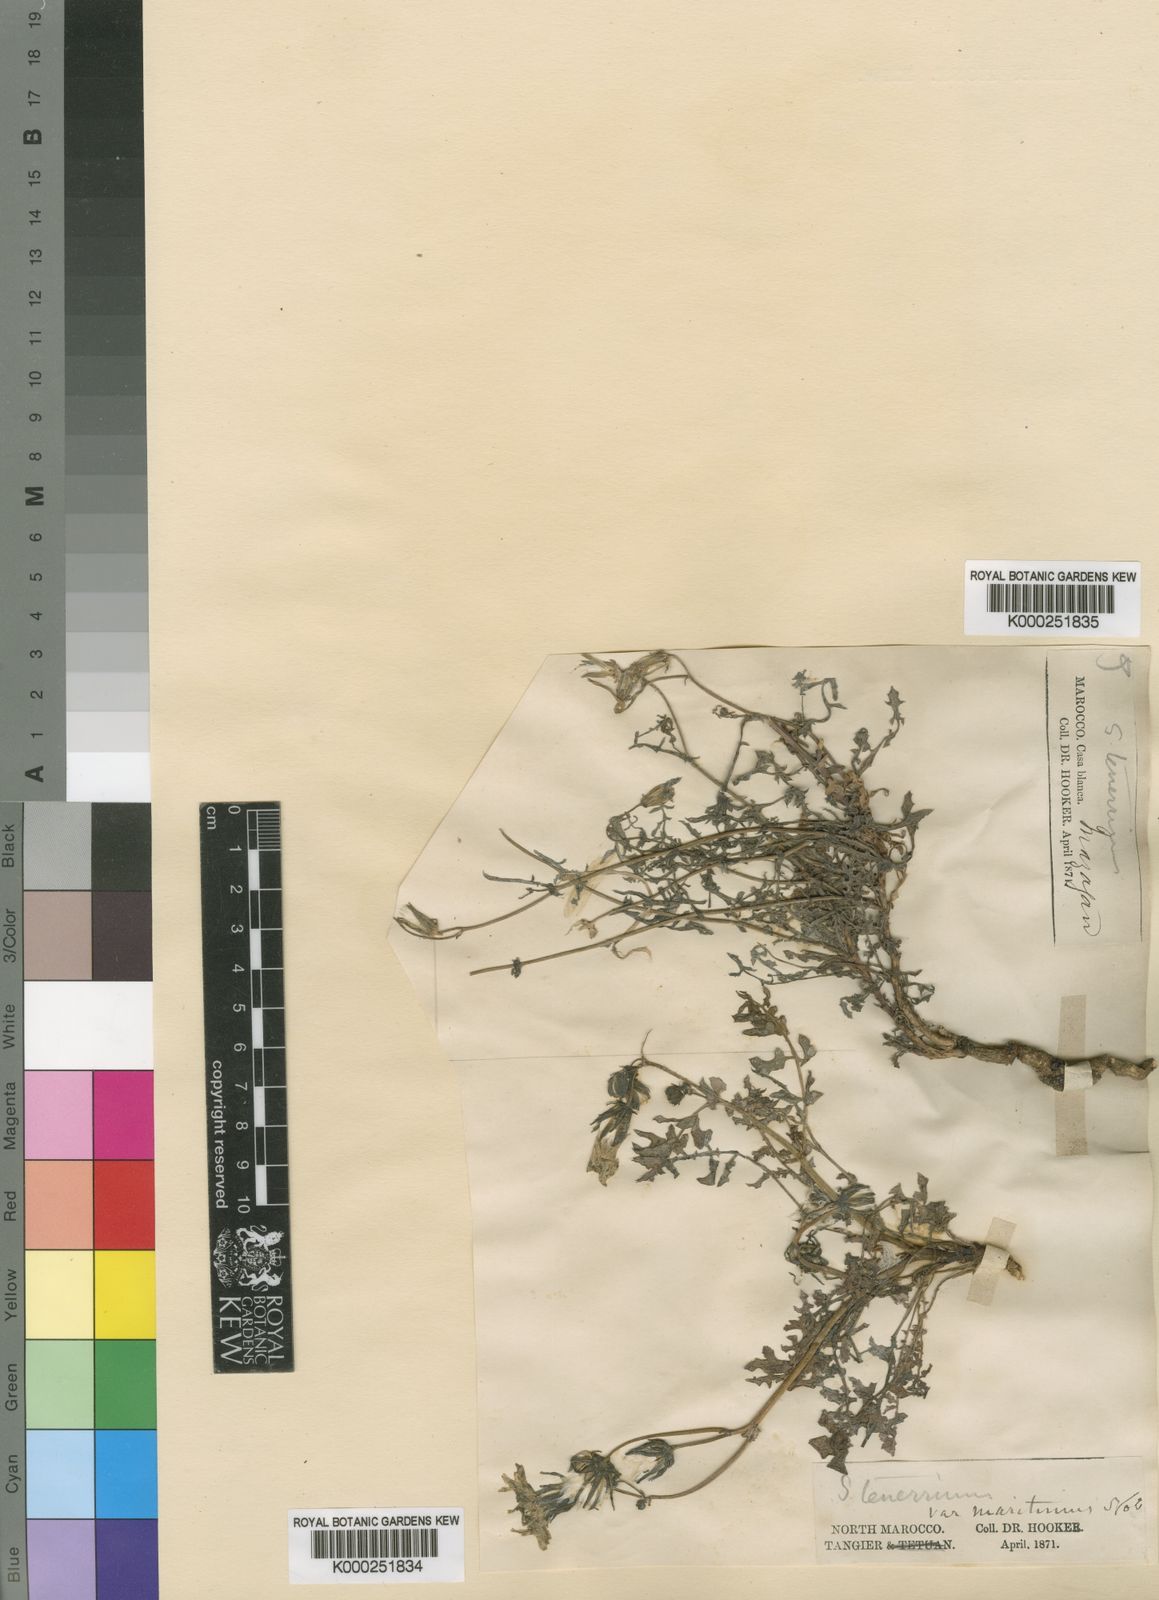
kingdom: Plantae
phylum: Tracheophyta
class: Magnoliopsida
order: Asterales
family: Asteraceae
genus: Sonchus
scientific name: Sonchus tenerrimus
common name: Clammy sowthistle
